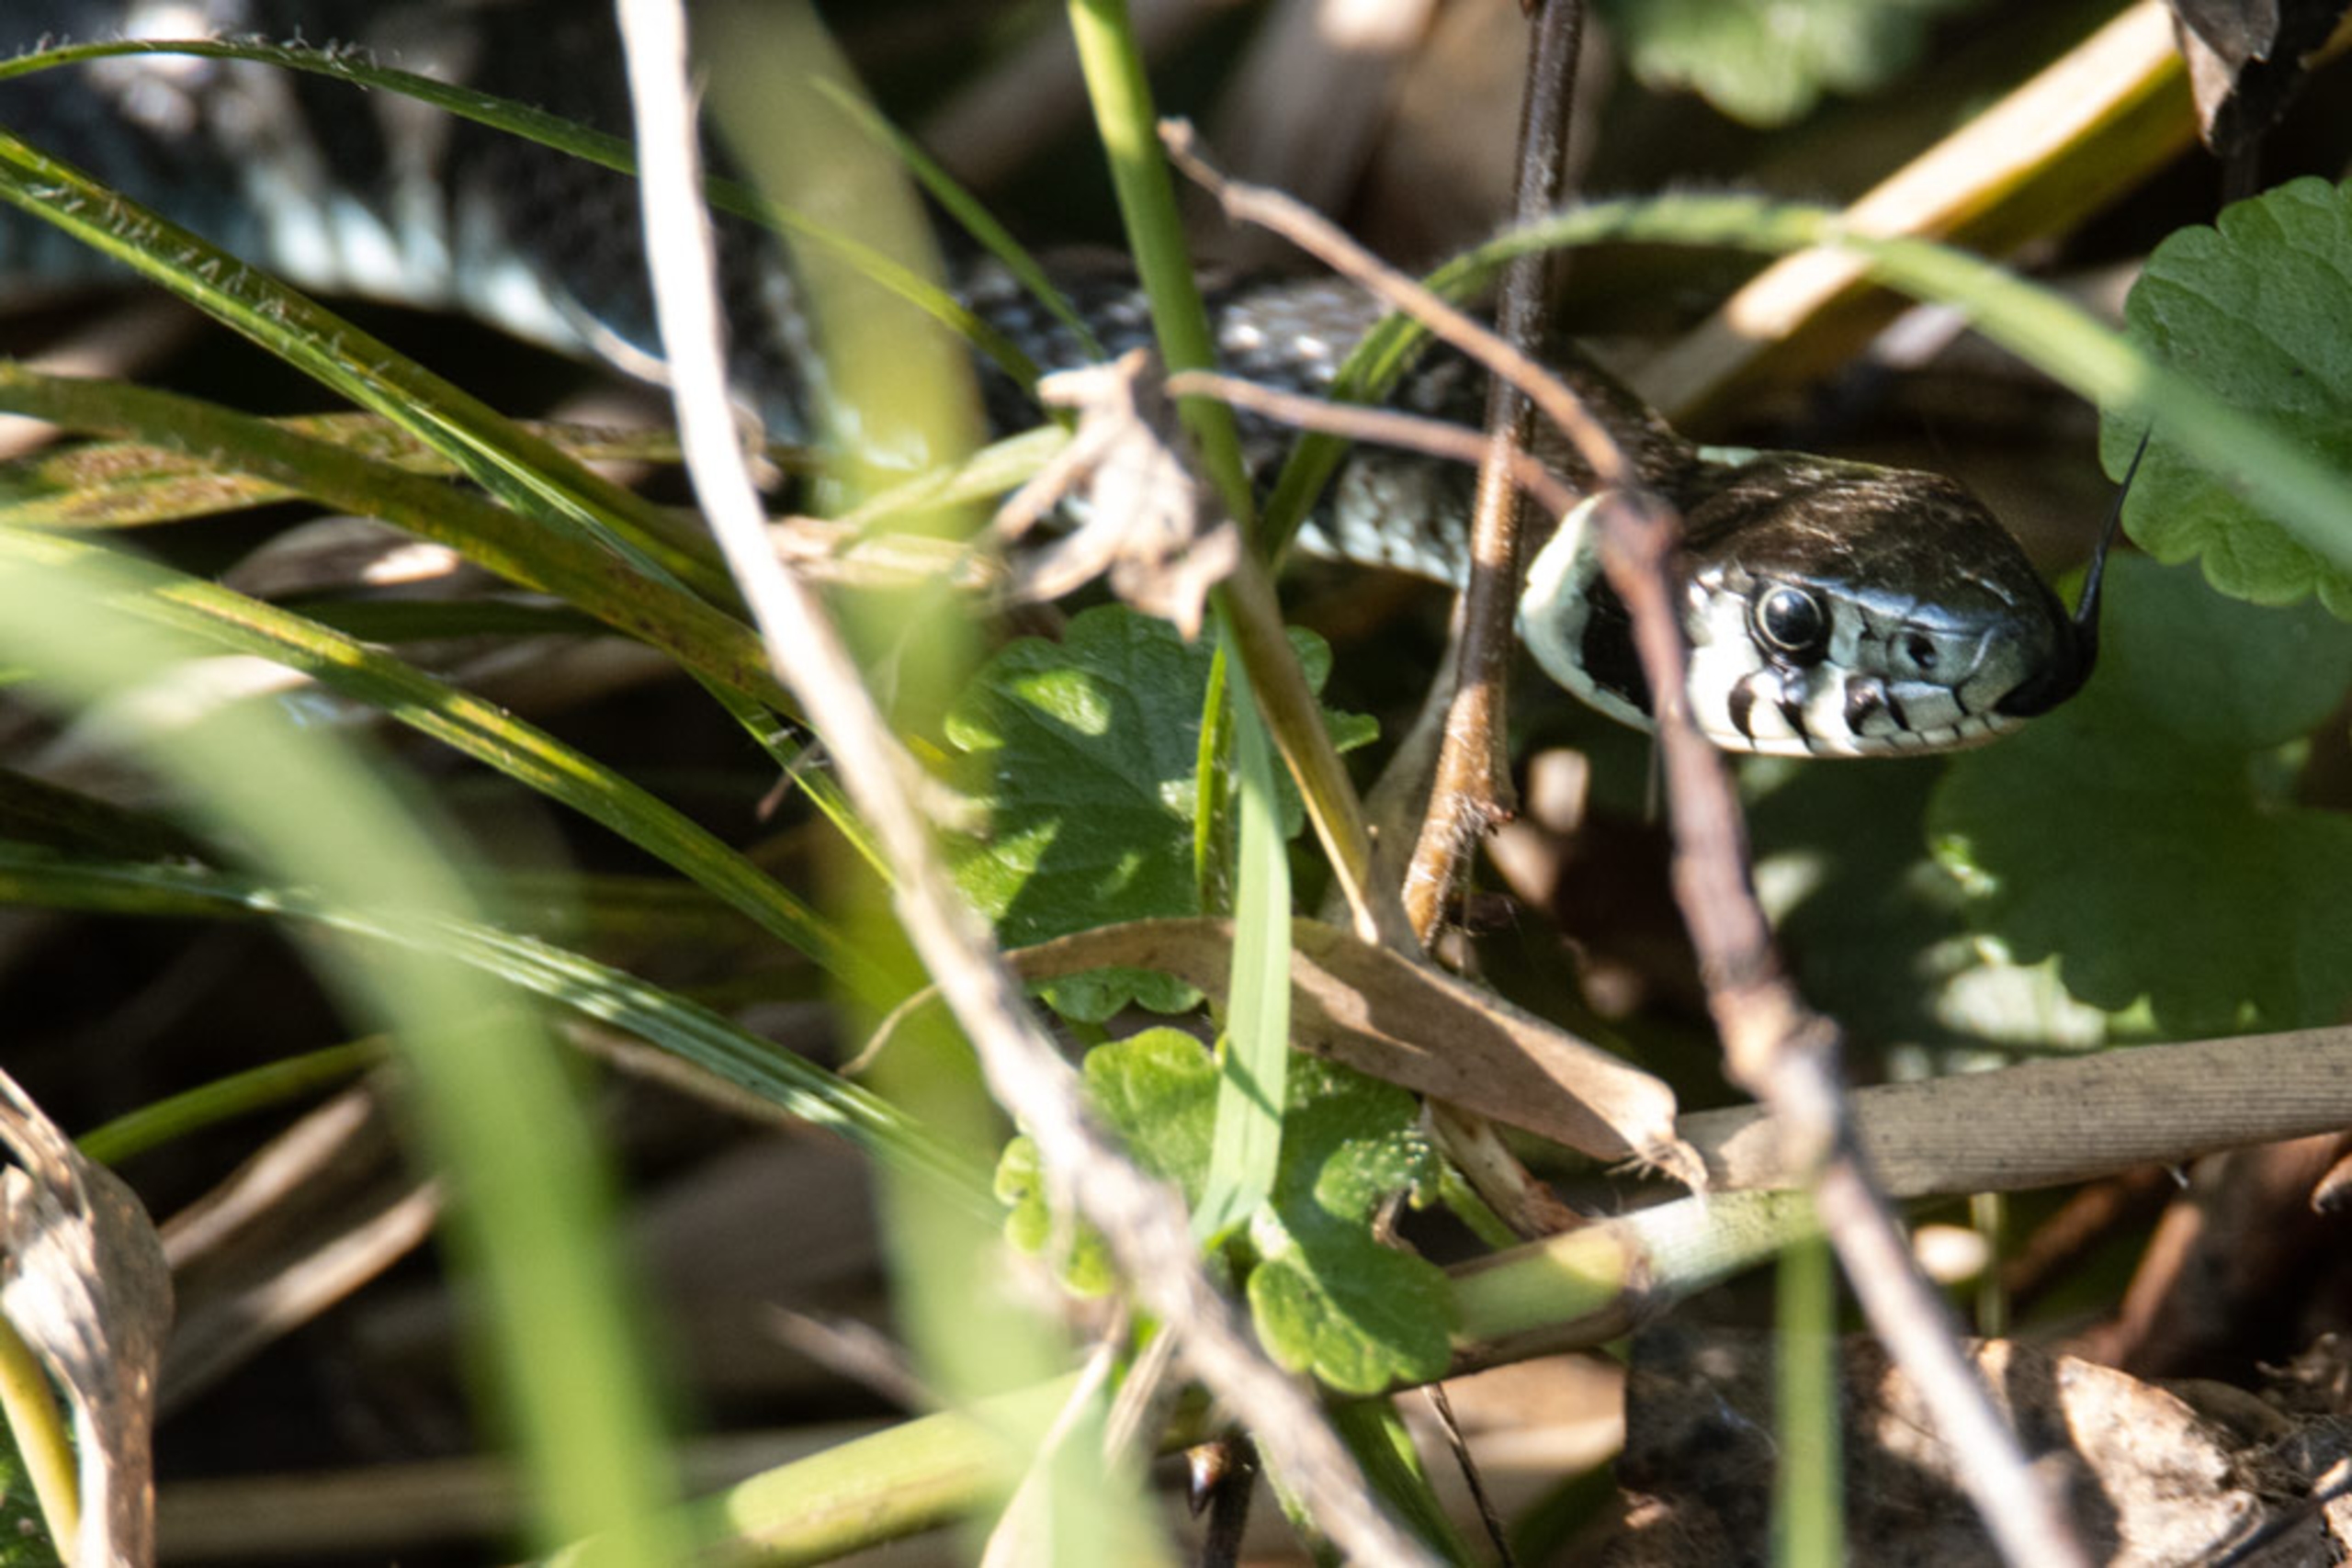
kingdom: Animalia
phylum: Chordata
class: Squamata
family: Colubridae
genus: Natrix
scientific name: Natrix natrix
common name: Snog
